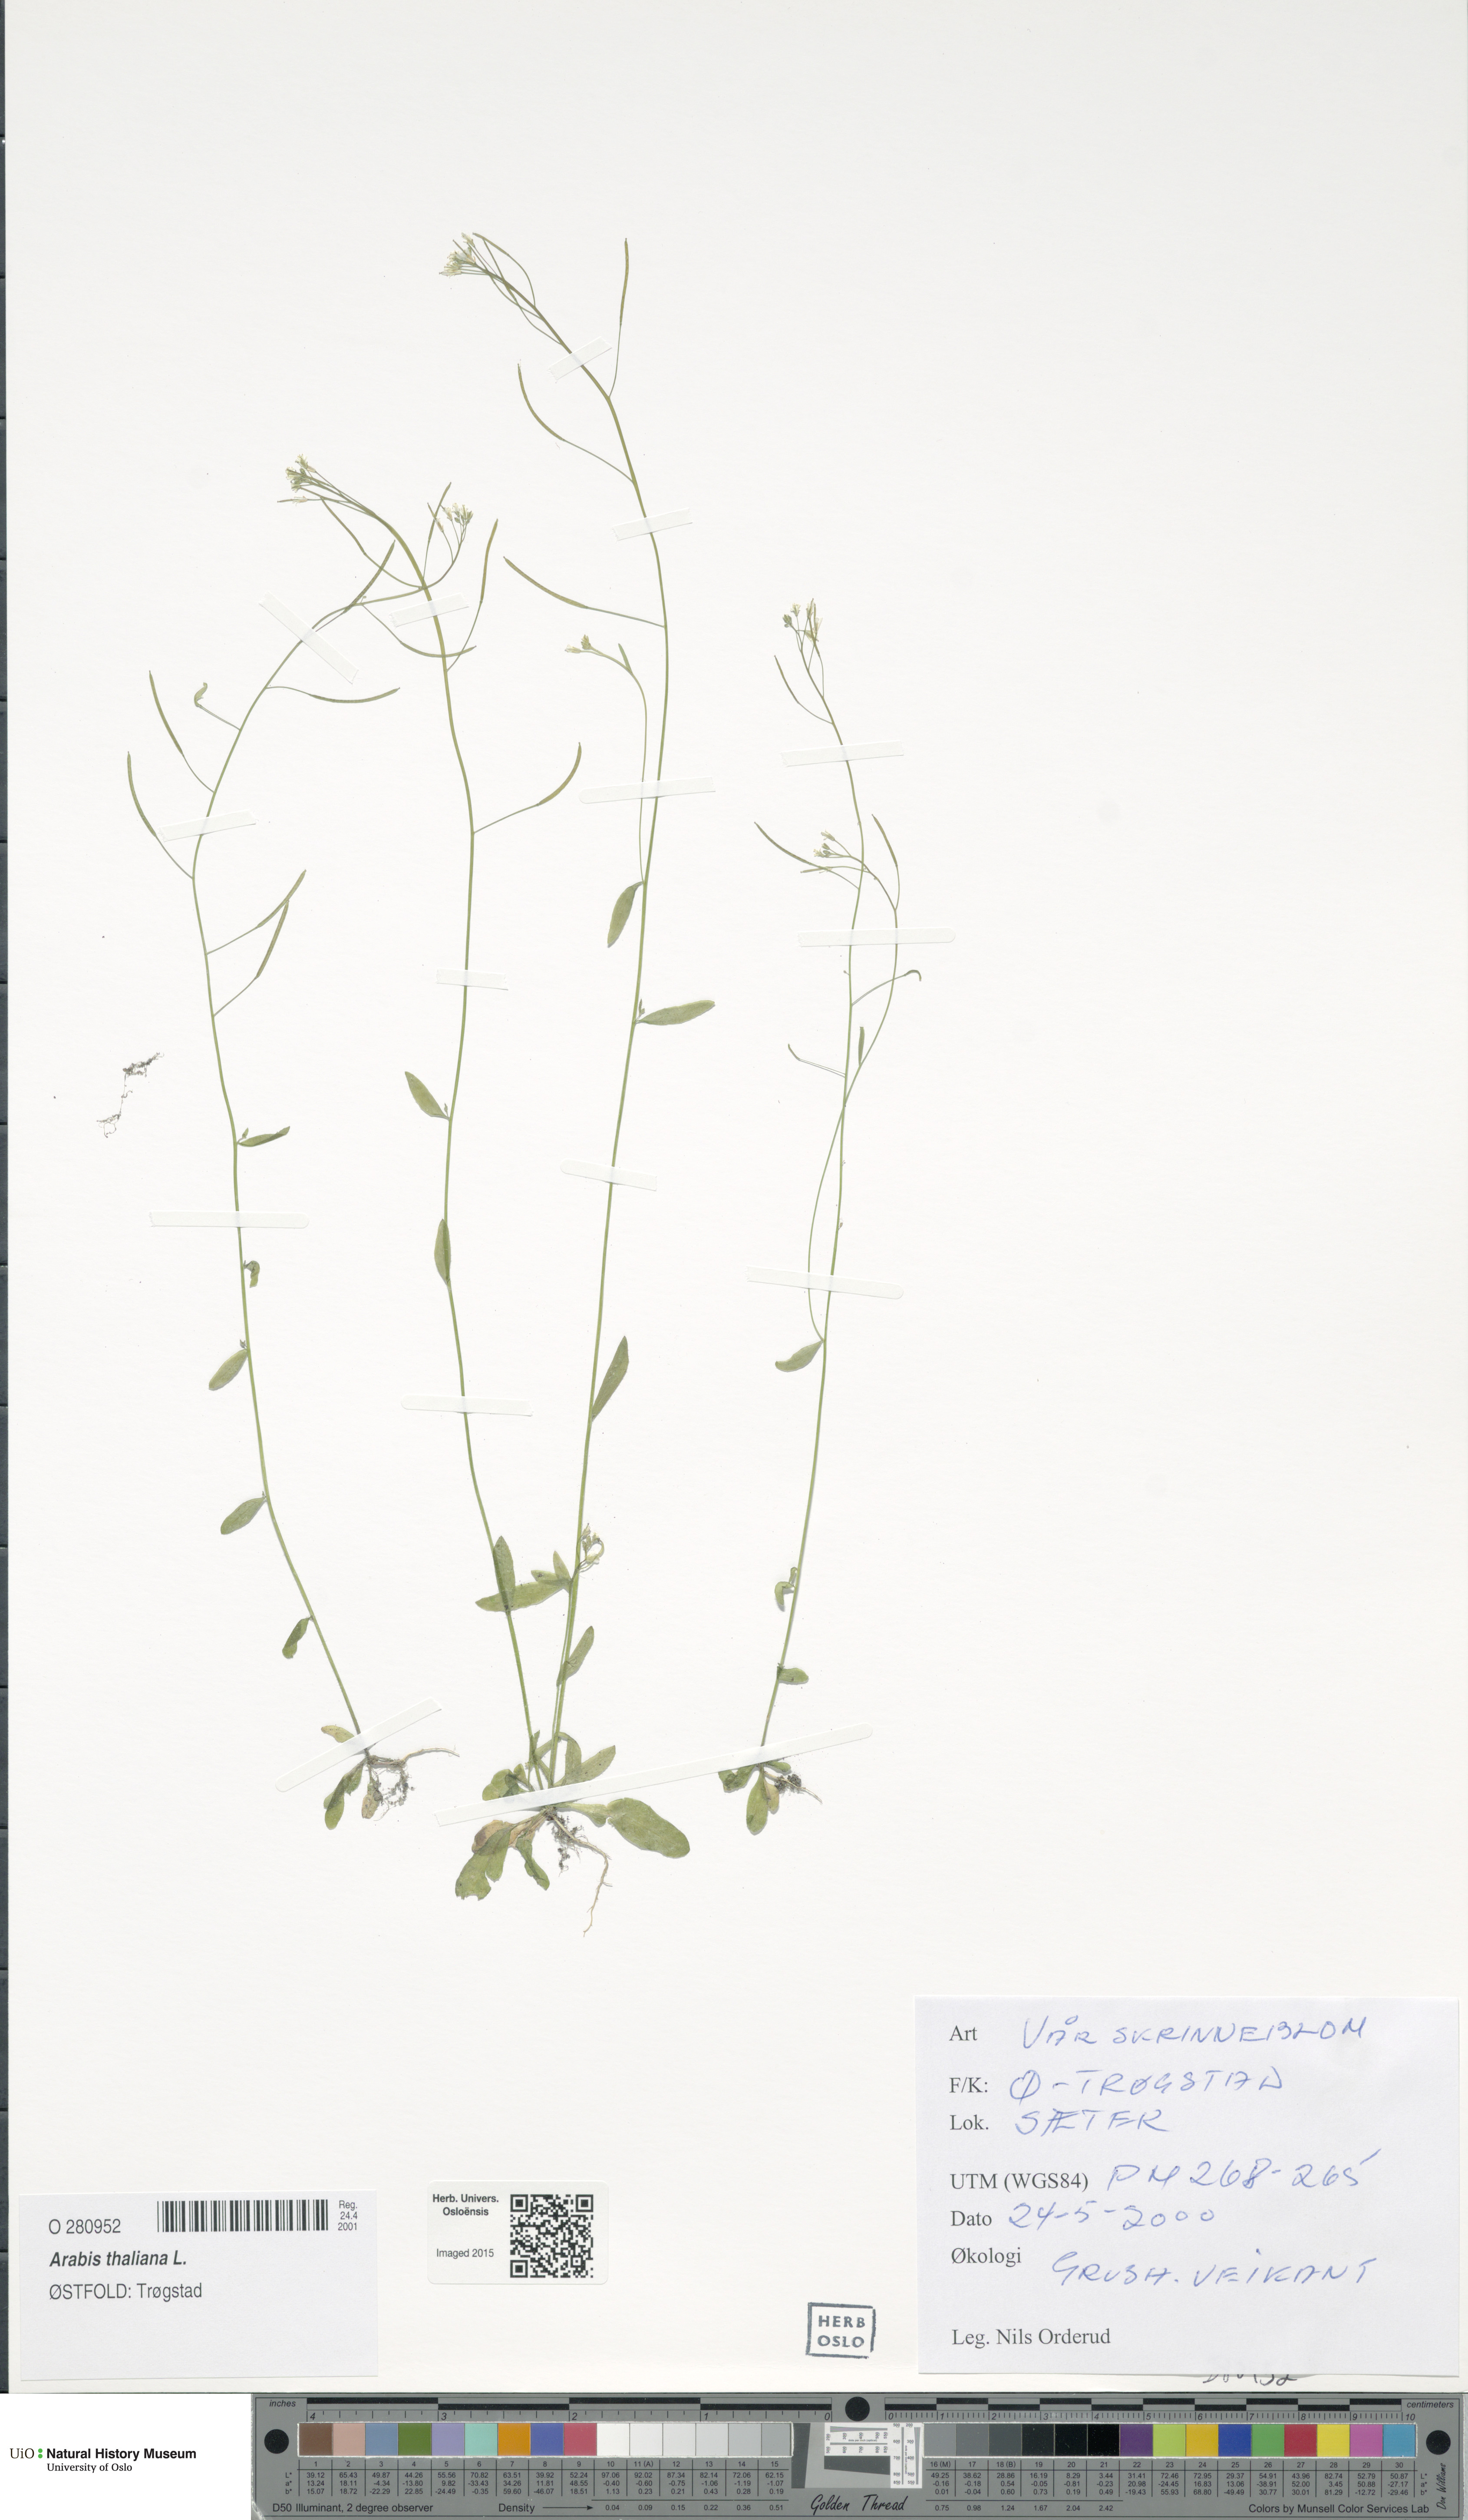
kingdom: Plantae
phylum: Tracheophyta
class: Magnoliopsida
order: Brassicales
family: Brassicaceae
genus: Arabidopsis
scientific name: Arabidopsis thaliana
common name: Thale cress
